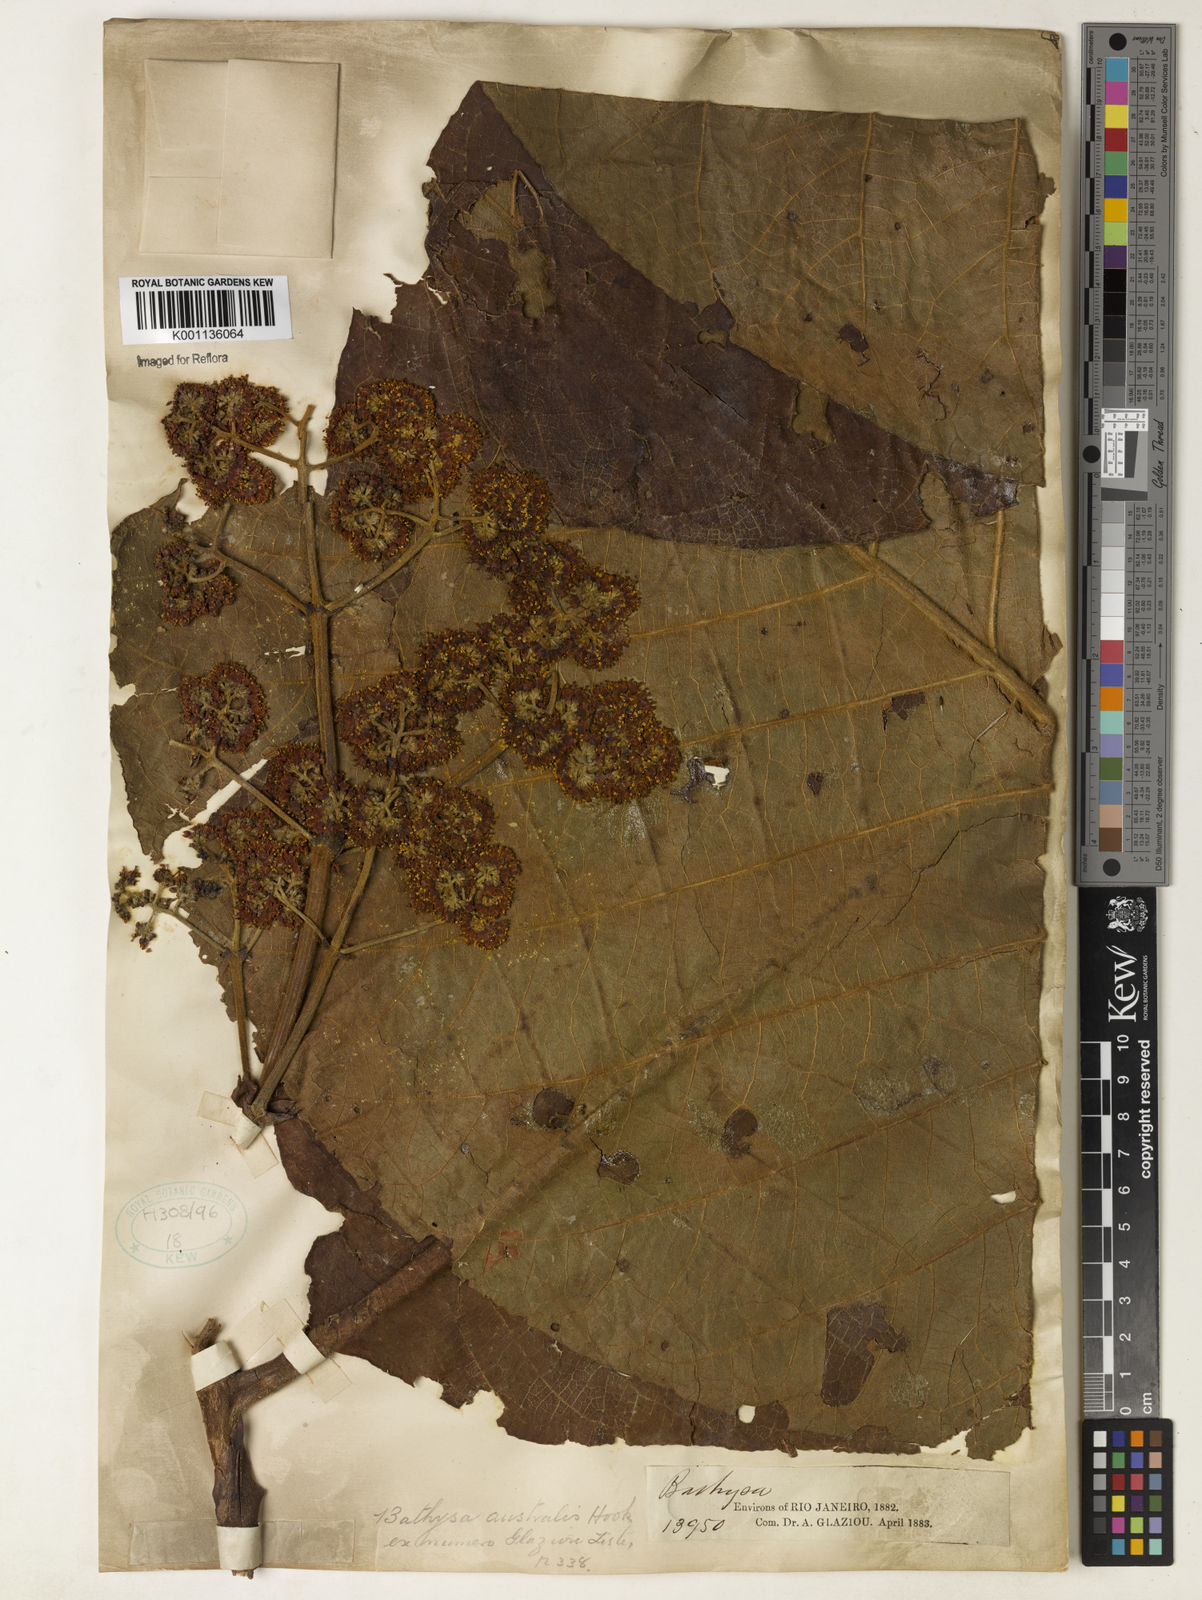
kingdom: Plantae
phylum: Tracheophyta
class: Magnoliopsida
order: Gentianales
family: Rubiaceae
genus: Bathysa
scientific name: Bathysa australis
